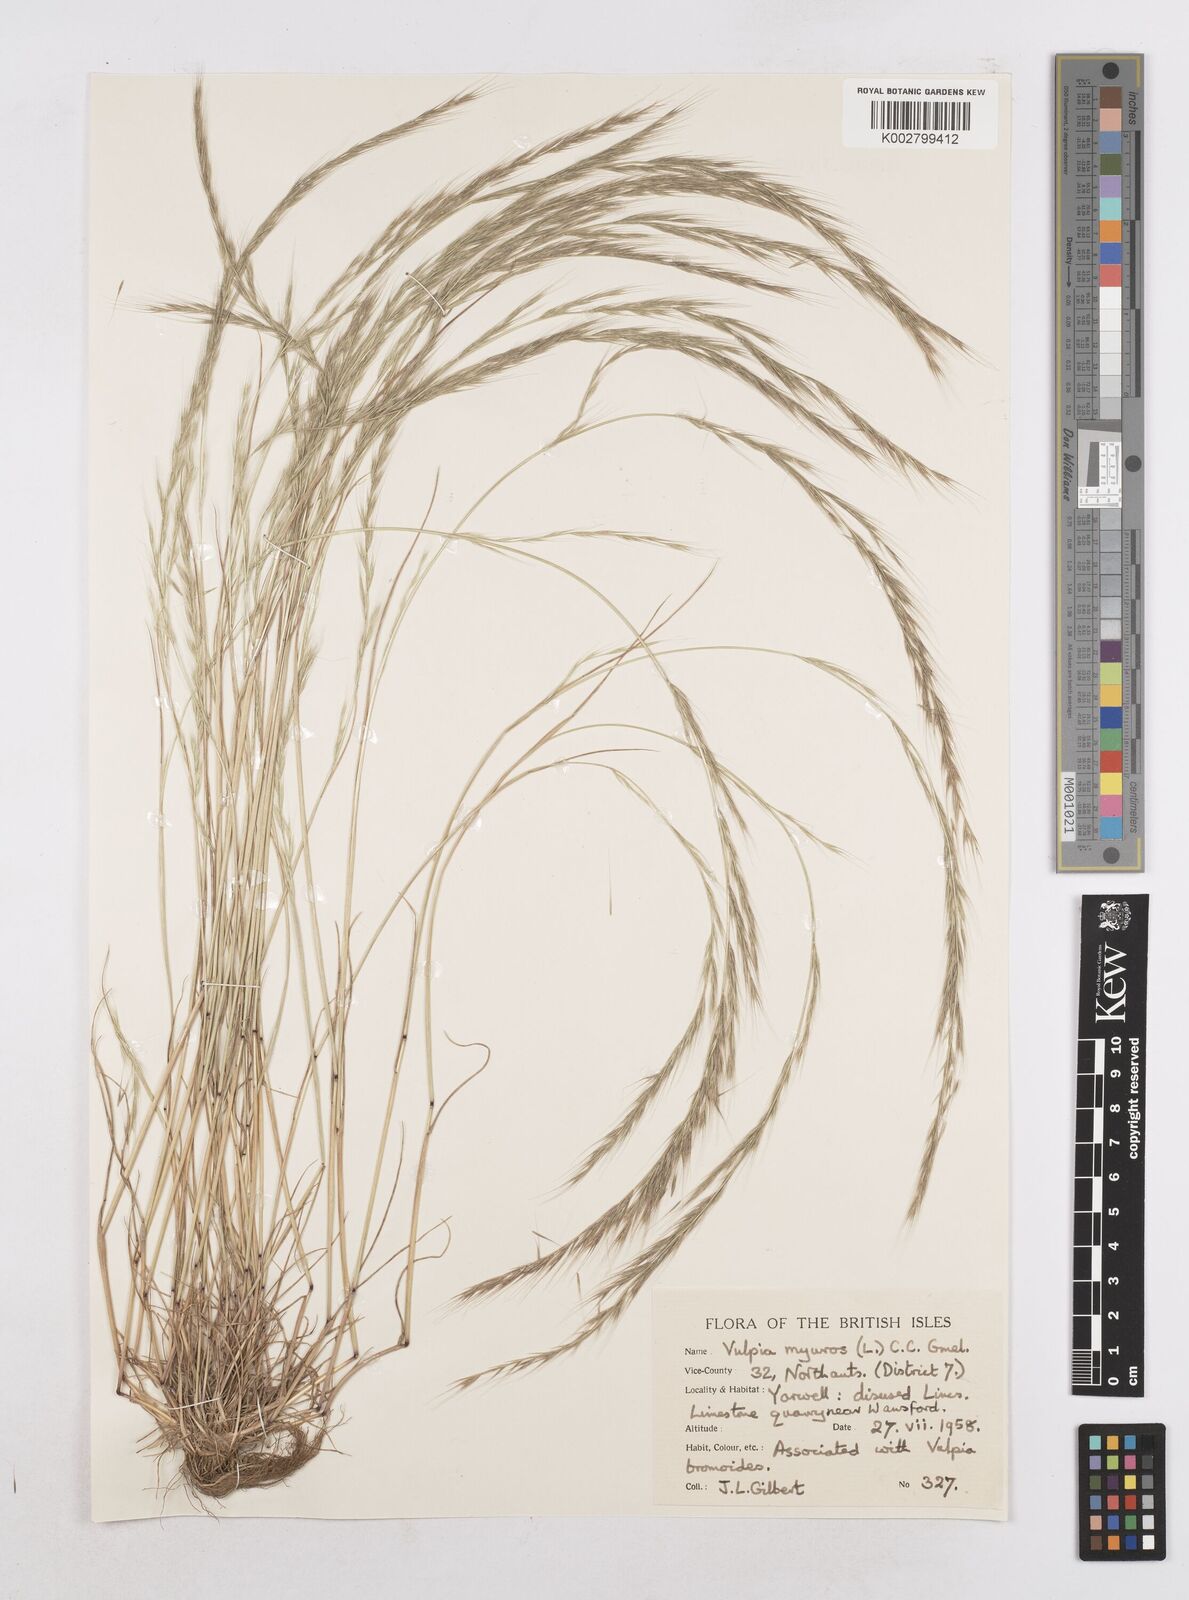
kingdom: Plantae
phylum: Tracheophyta
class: Liliopsida
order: Poales
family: Poaceae
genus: Festuca
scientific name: Festuca myuros
